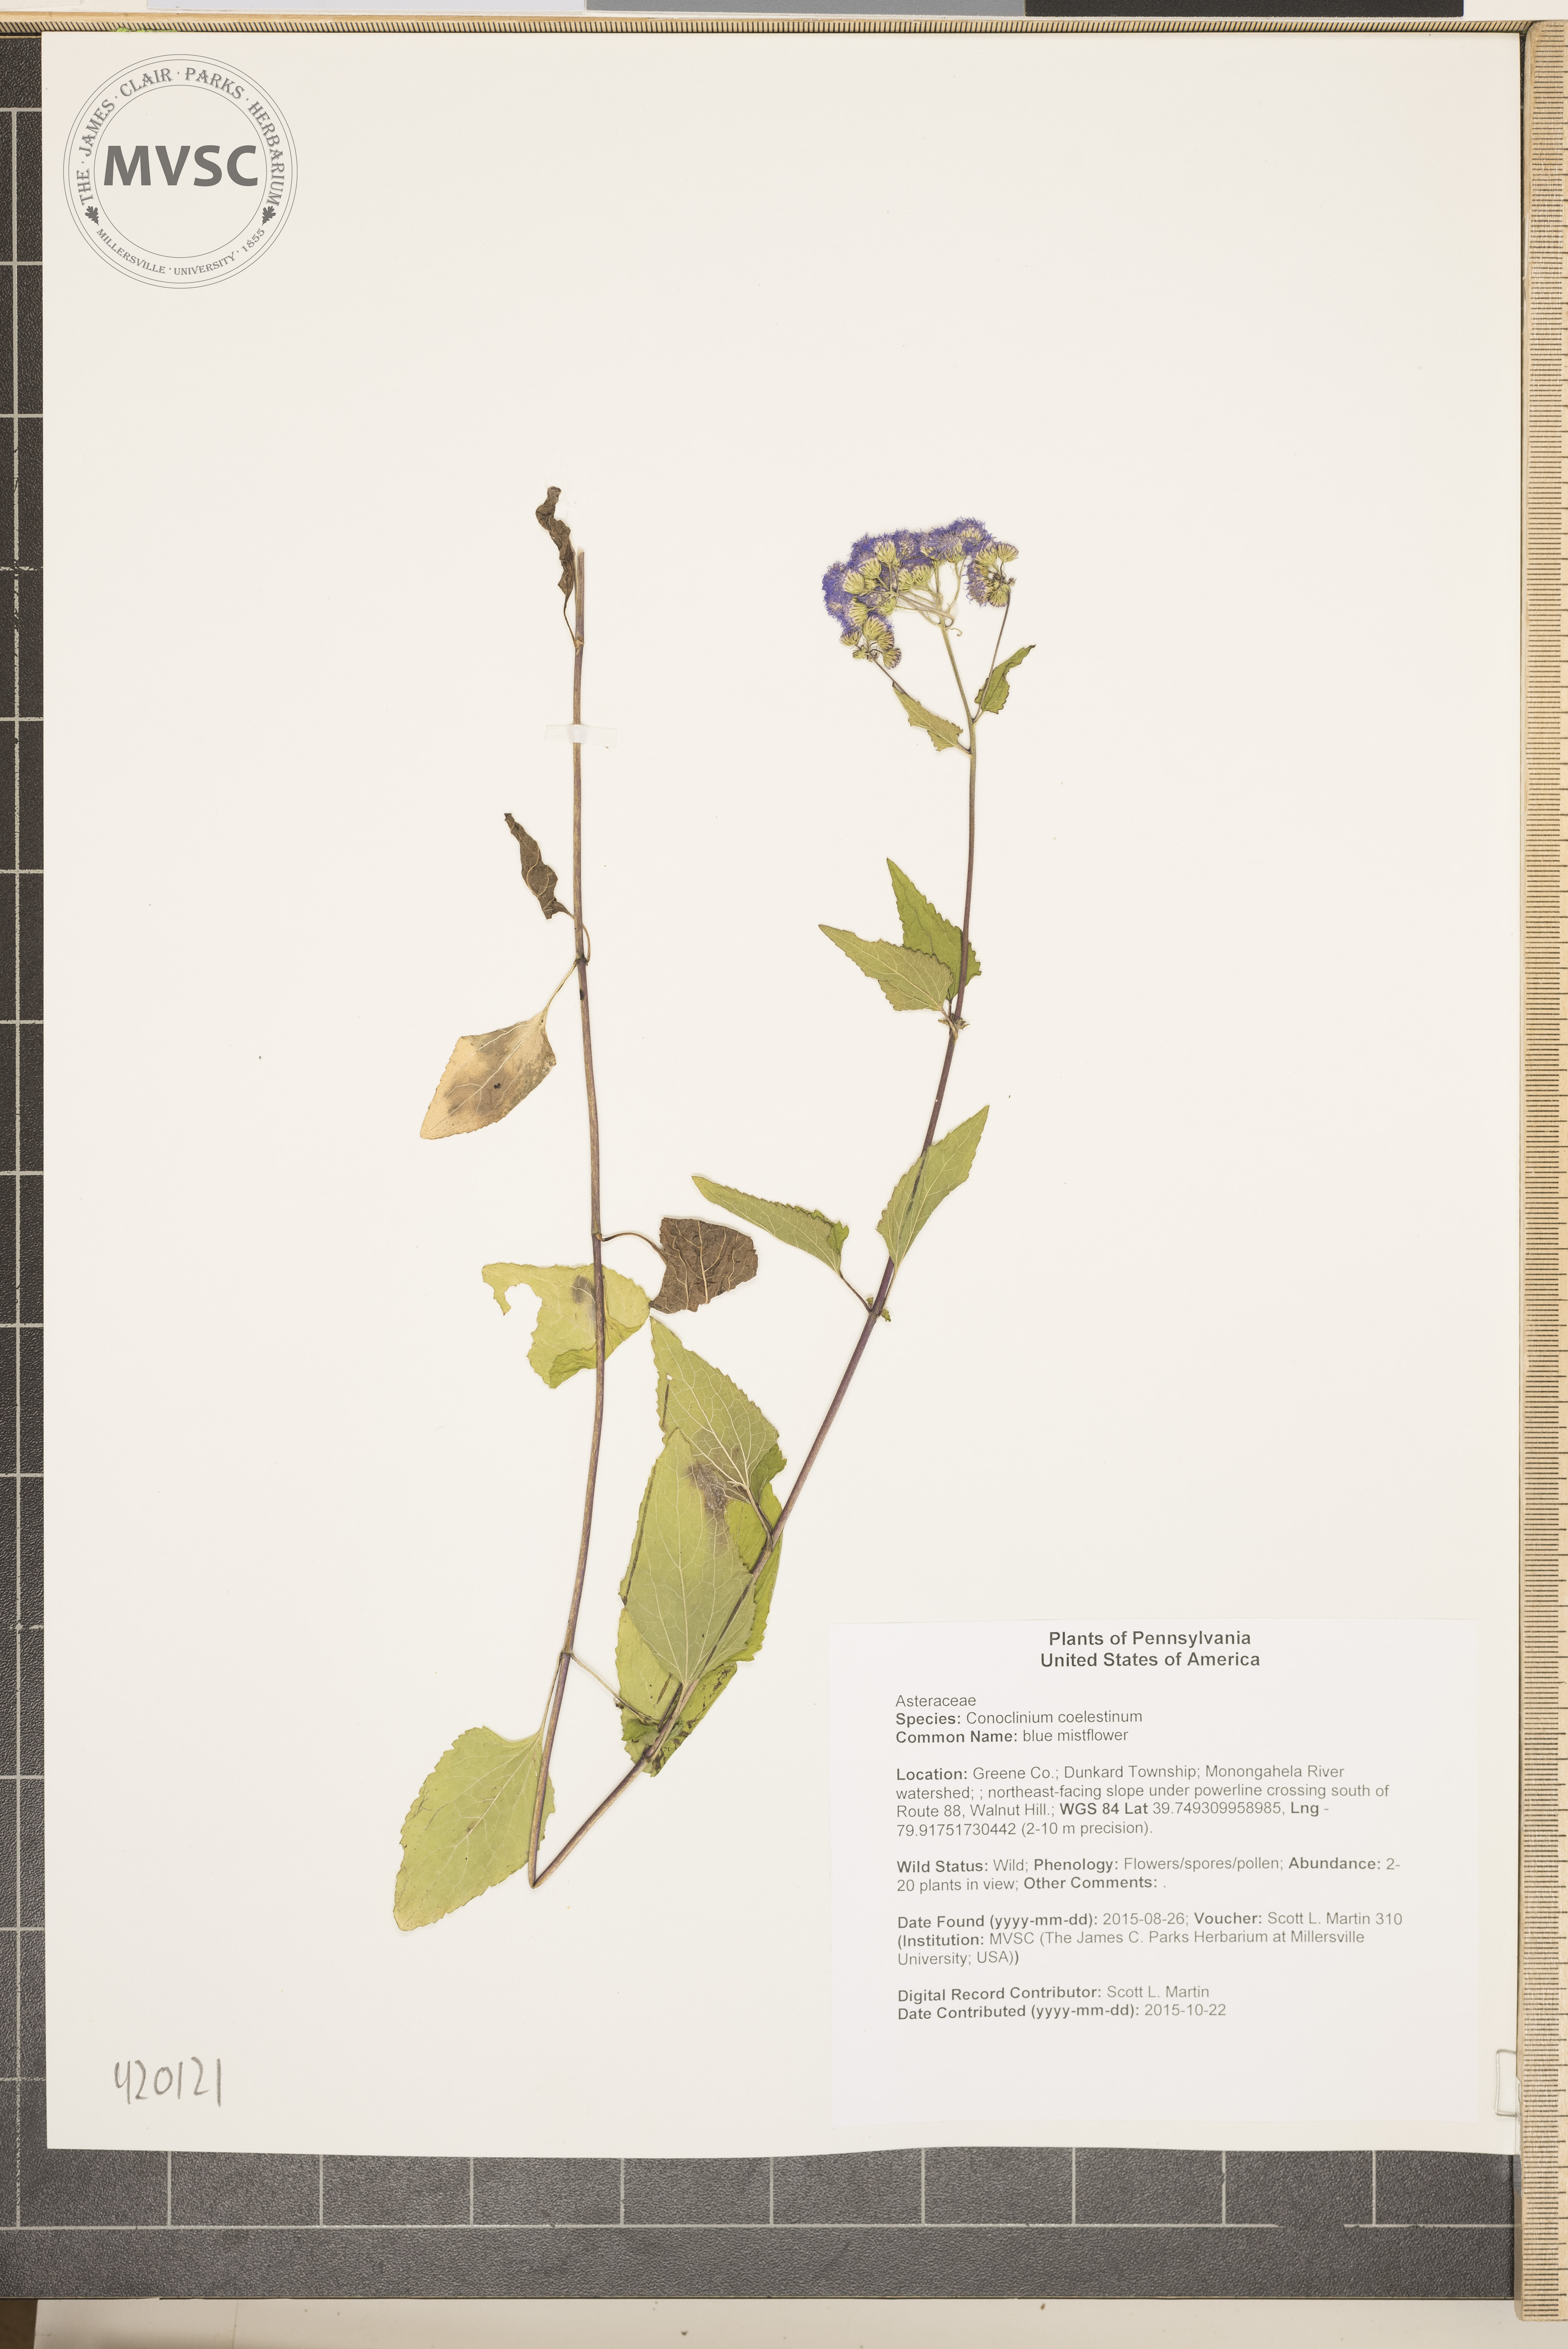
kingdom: Plantae
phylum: Tracheophyta
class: Magnoliopsida
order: Asterales
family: Asteraceae
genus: Conoclinium
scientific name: Conoclinium coelestinum
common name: blue mistflower
